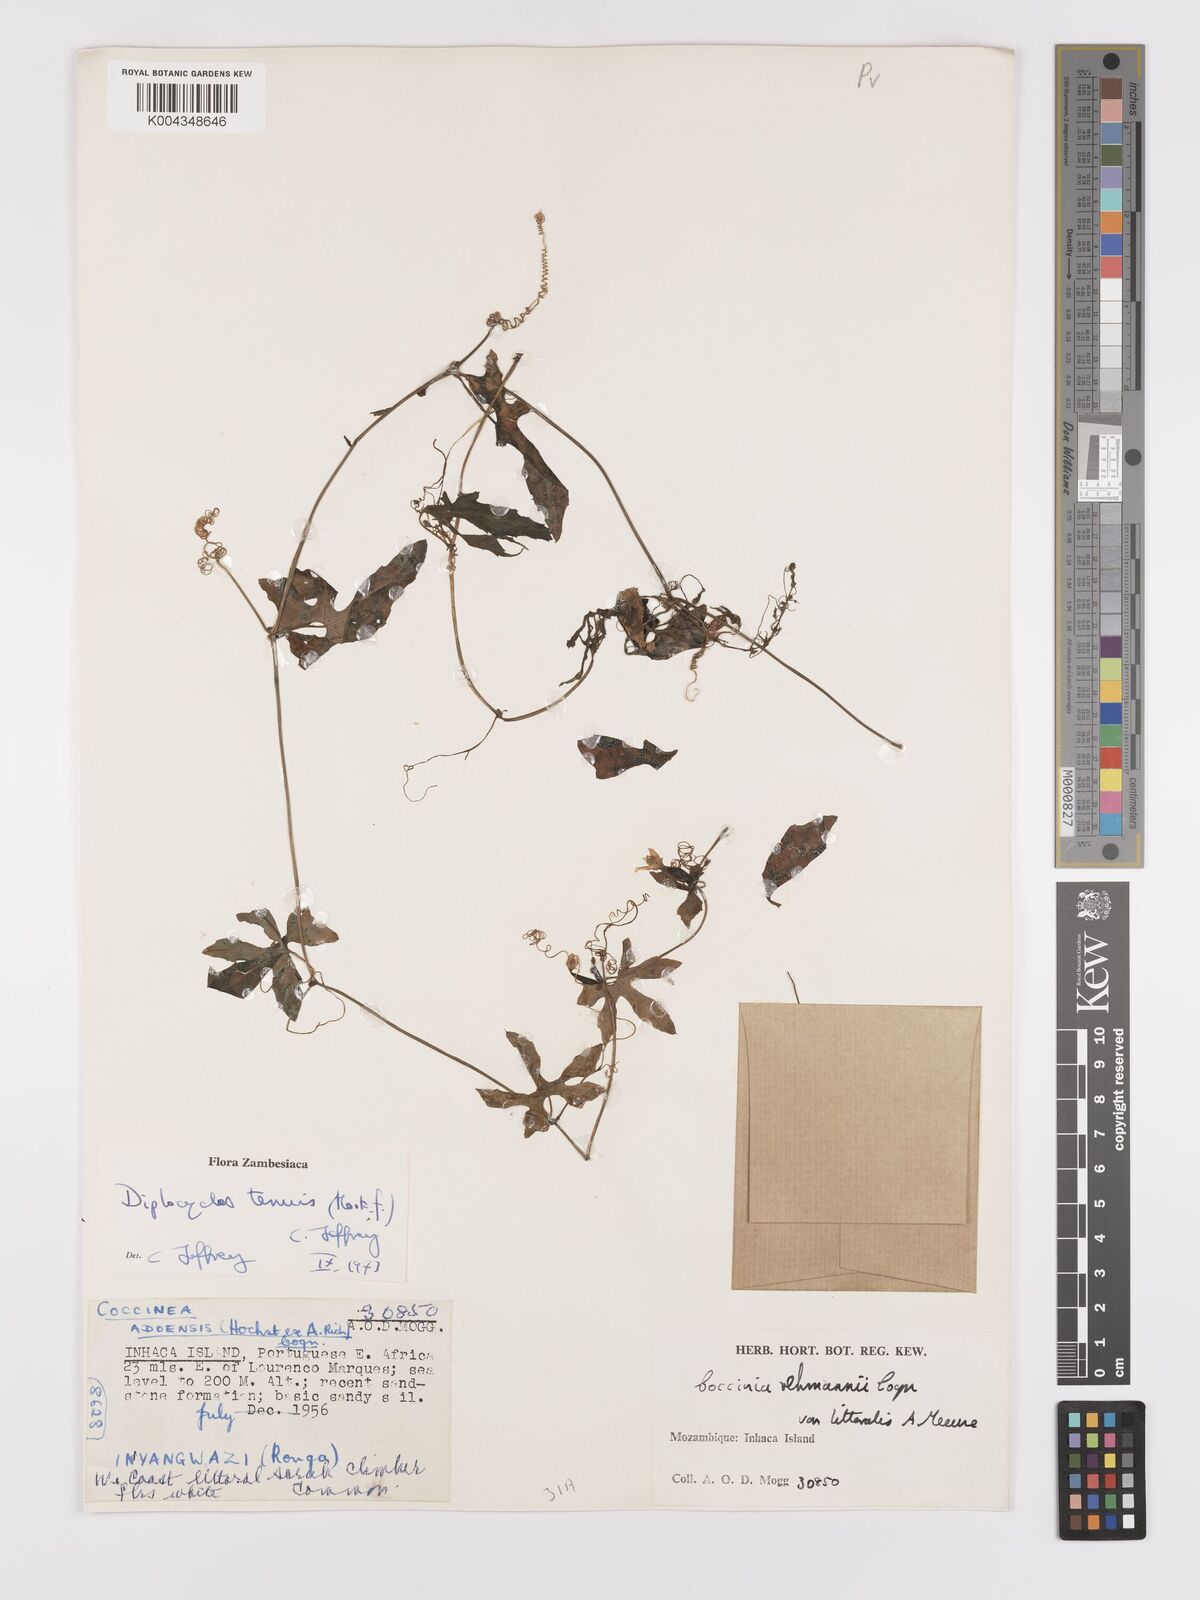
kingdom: Plantae
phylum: Tracheophyta
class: Magnoliopsida
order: Cucurbitales
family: Cucurbitaceae
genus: Diplocyclos
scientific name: Diplocyclos tenuis
